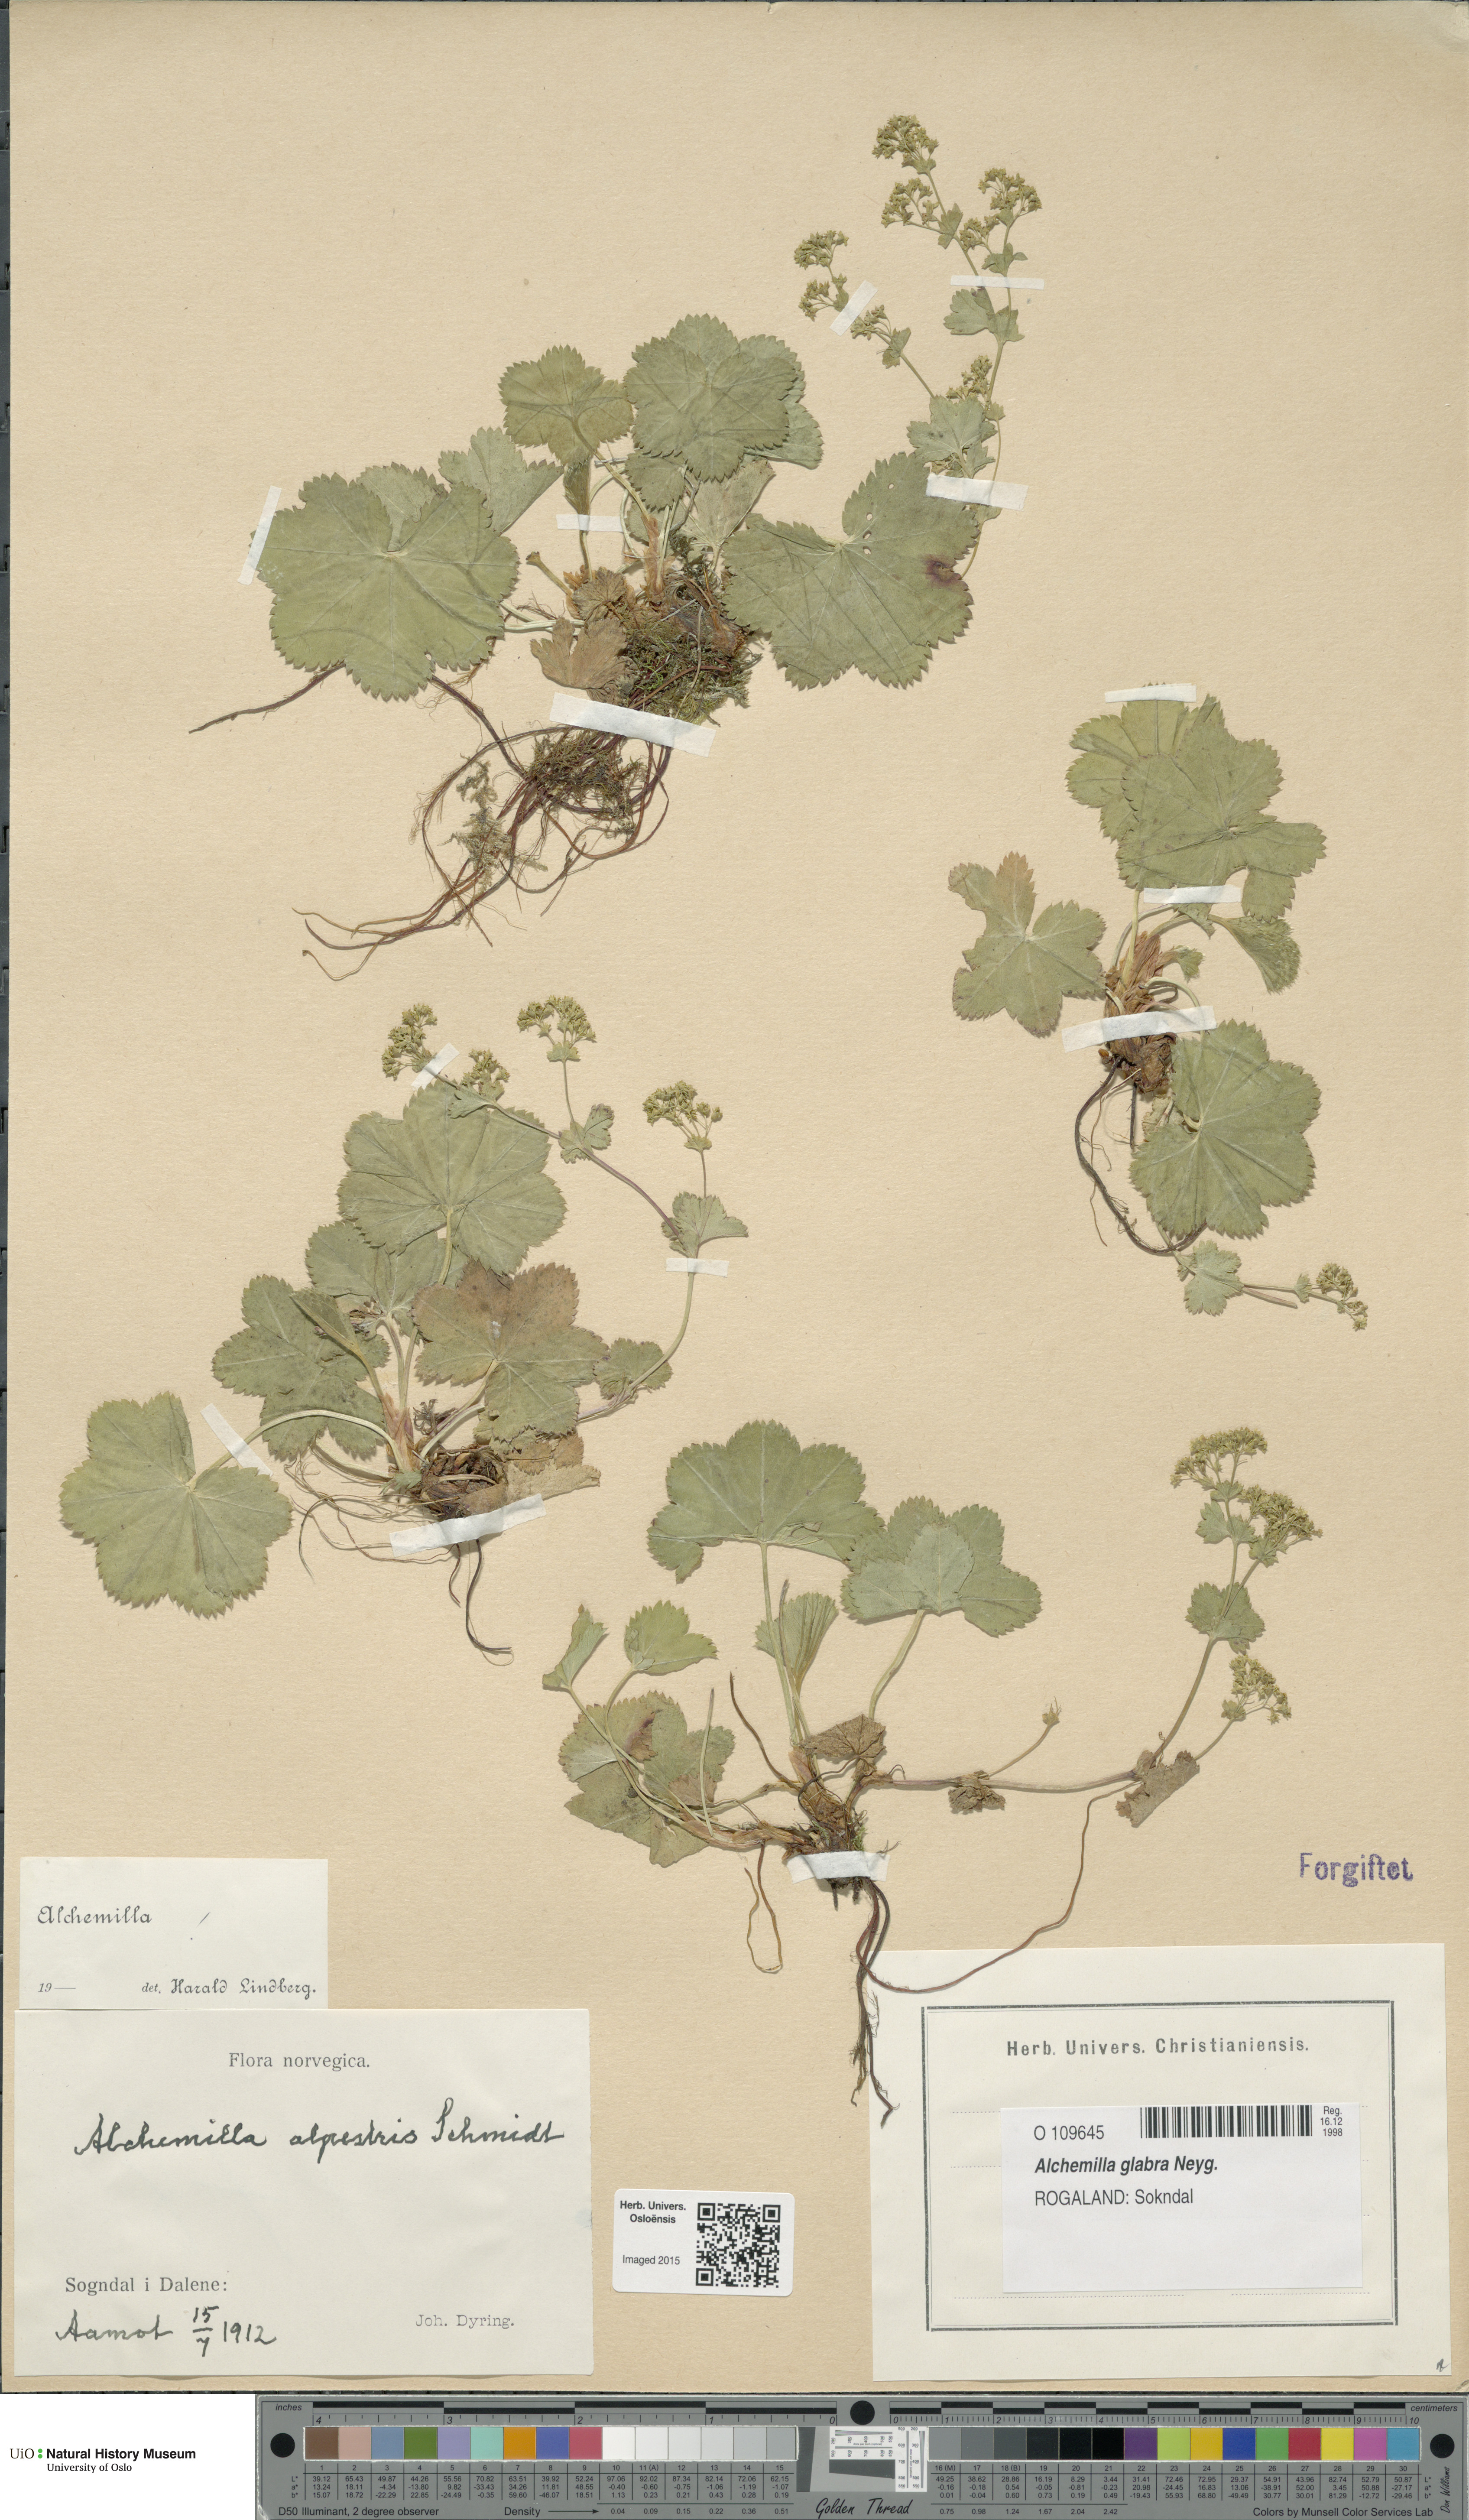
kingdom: Plantae
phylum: Tracheophyta
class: Magnoliopsida
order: Rosales
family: Rosaceae
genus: Alchemilla
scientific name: Alchemilla glabra
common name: Smooth lady's-mantle
